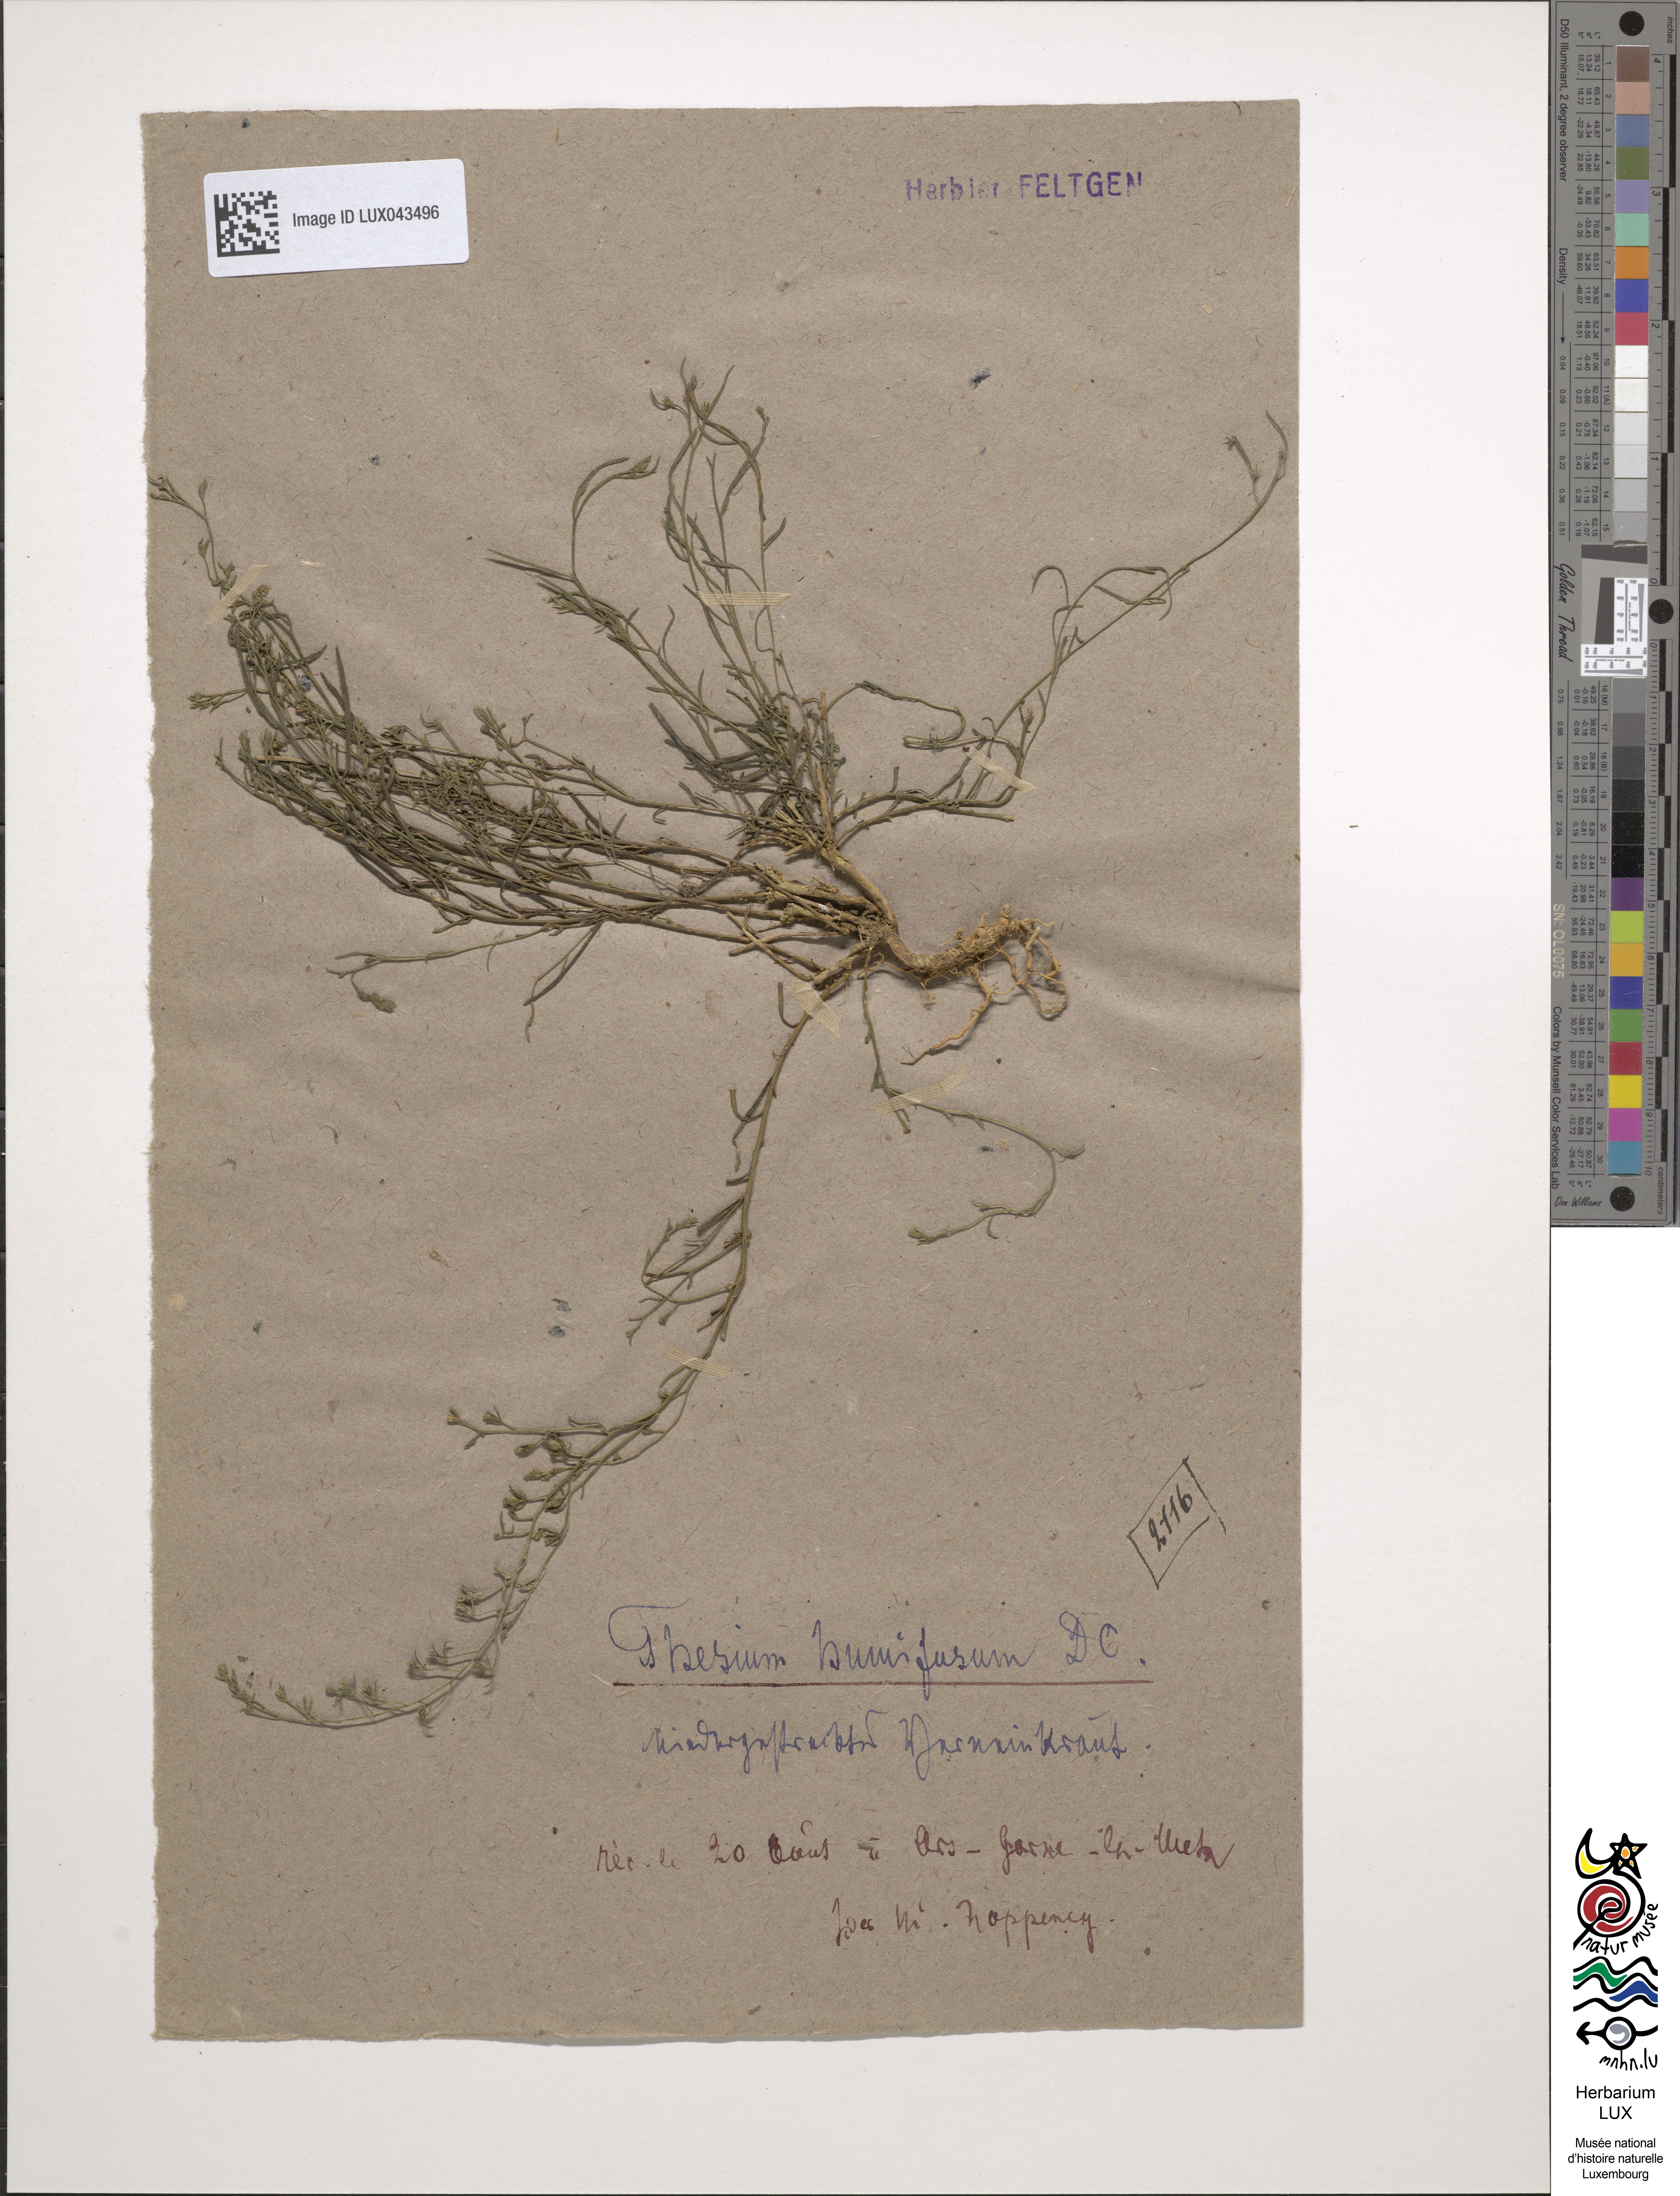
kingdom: Plantae
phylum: Tracheophyta
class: Magnoliopsida
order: Santalales
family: Thesiaceae
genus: Thesium
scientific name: Thesium humifusum
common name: Bastard-toadflax
